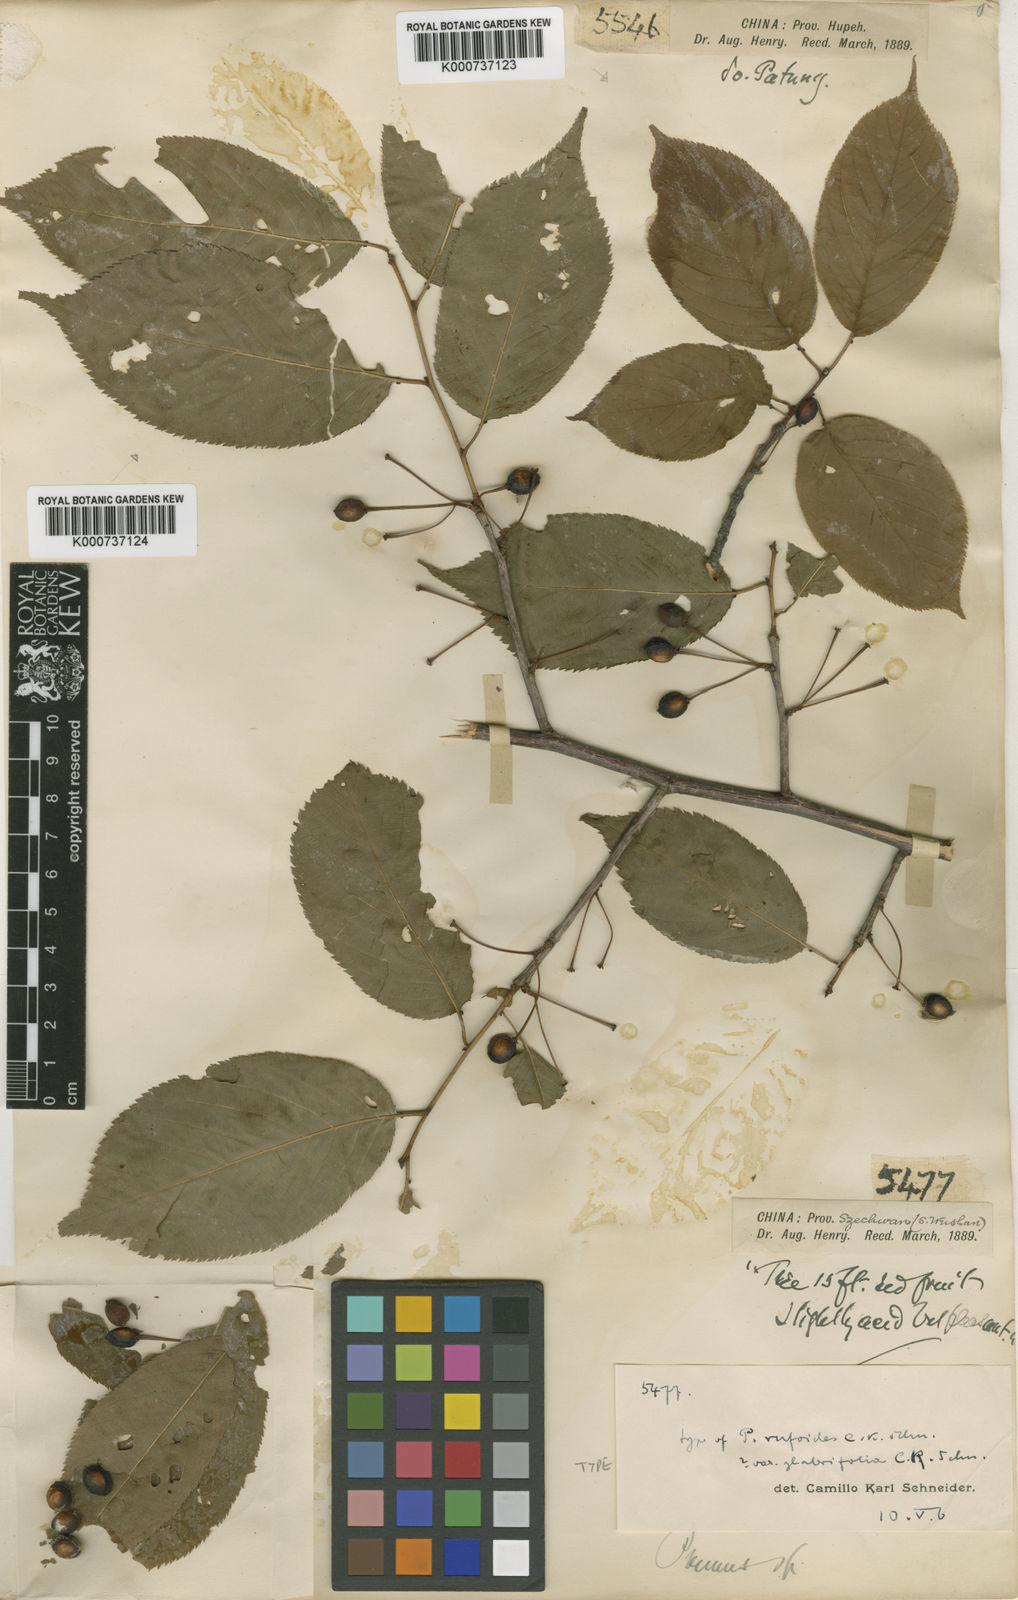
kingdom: Plantae
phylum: Tracheophyta
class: Magnoliopsida
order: Rosales
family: Rosaceae
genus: Prunus
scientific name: Prunus conradinae
